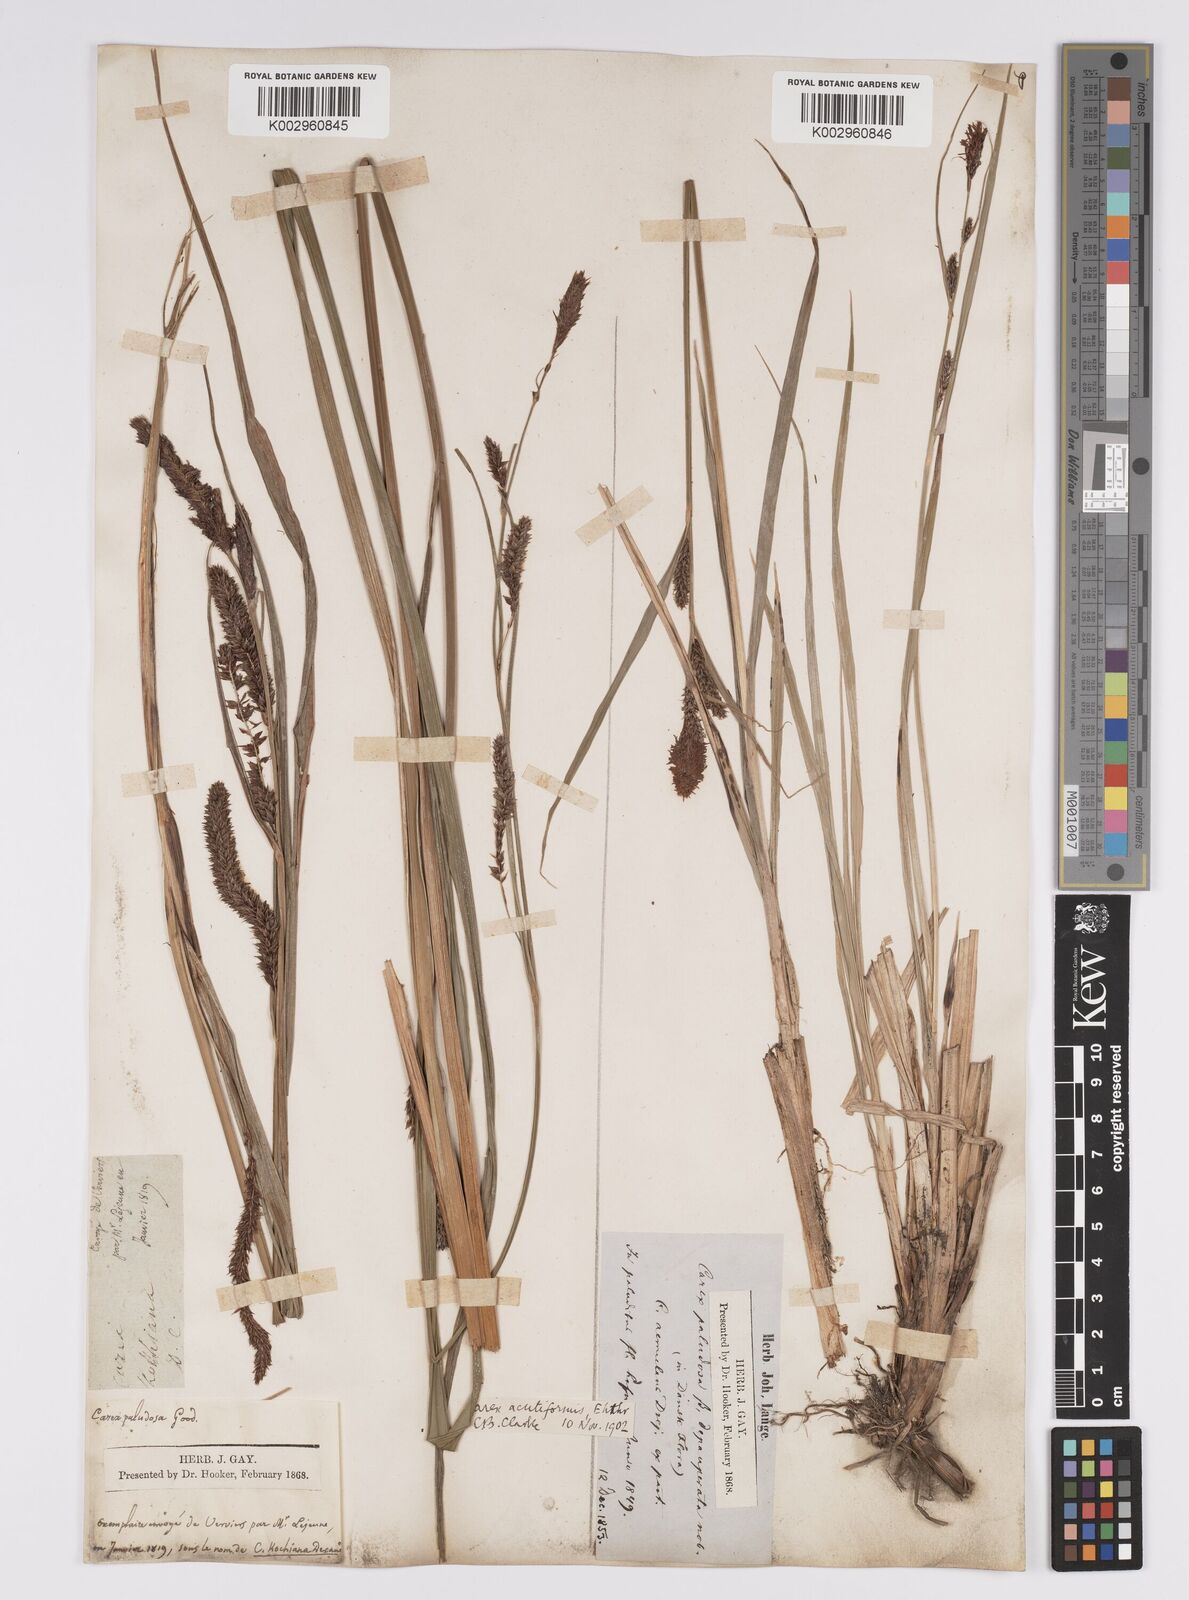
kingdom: Plantae
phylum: Tracheophyta
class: Liliopsida
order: Poales
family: Cyperaceae
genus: Carex
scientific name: Carex acutiformis
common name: Lesser pond-sedge
